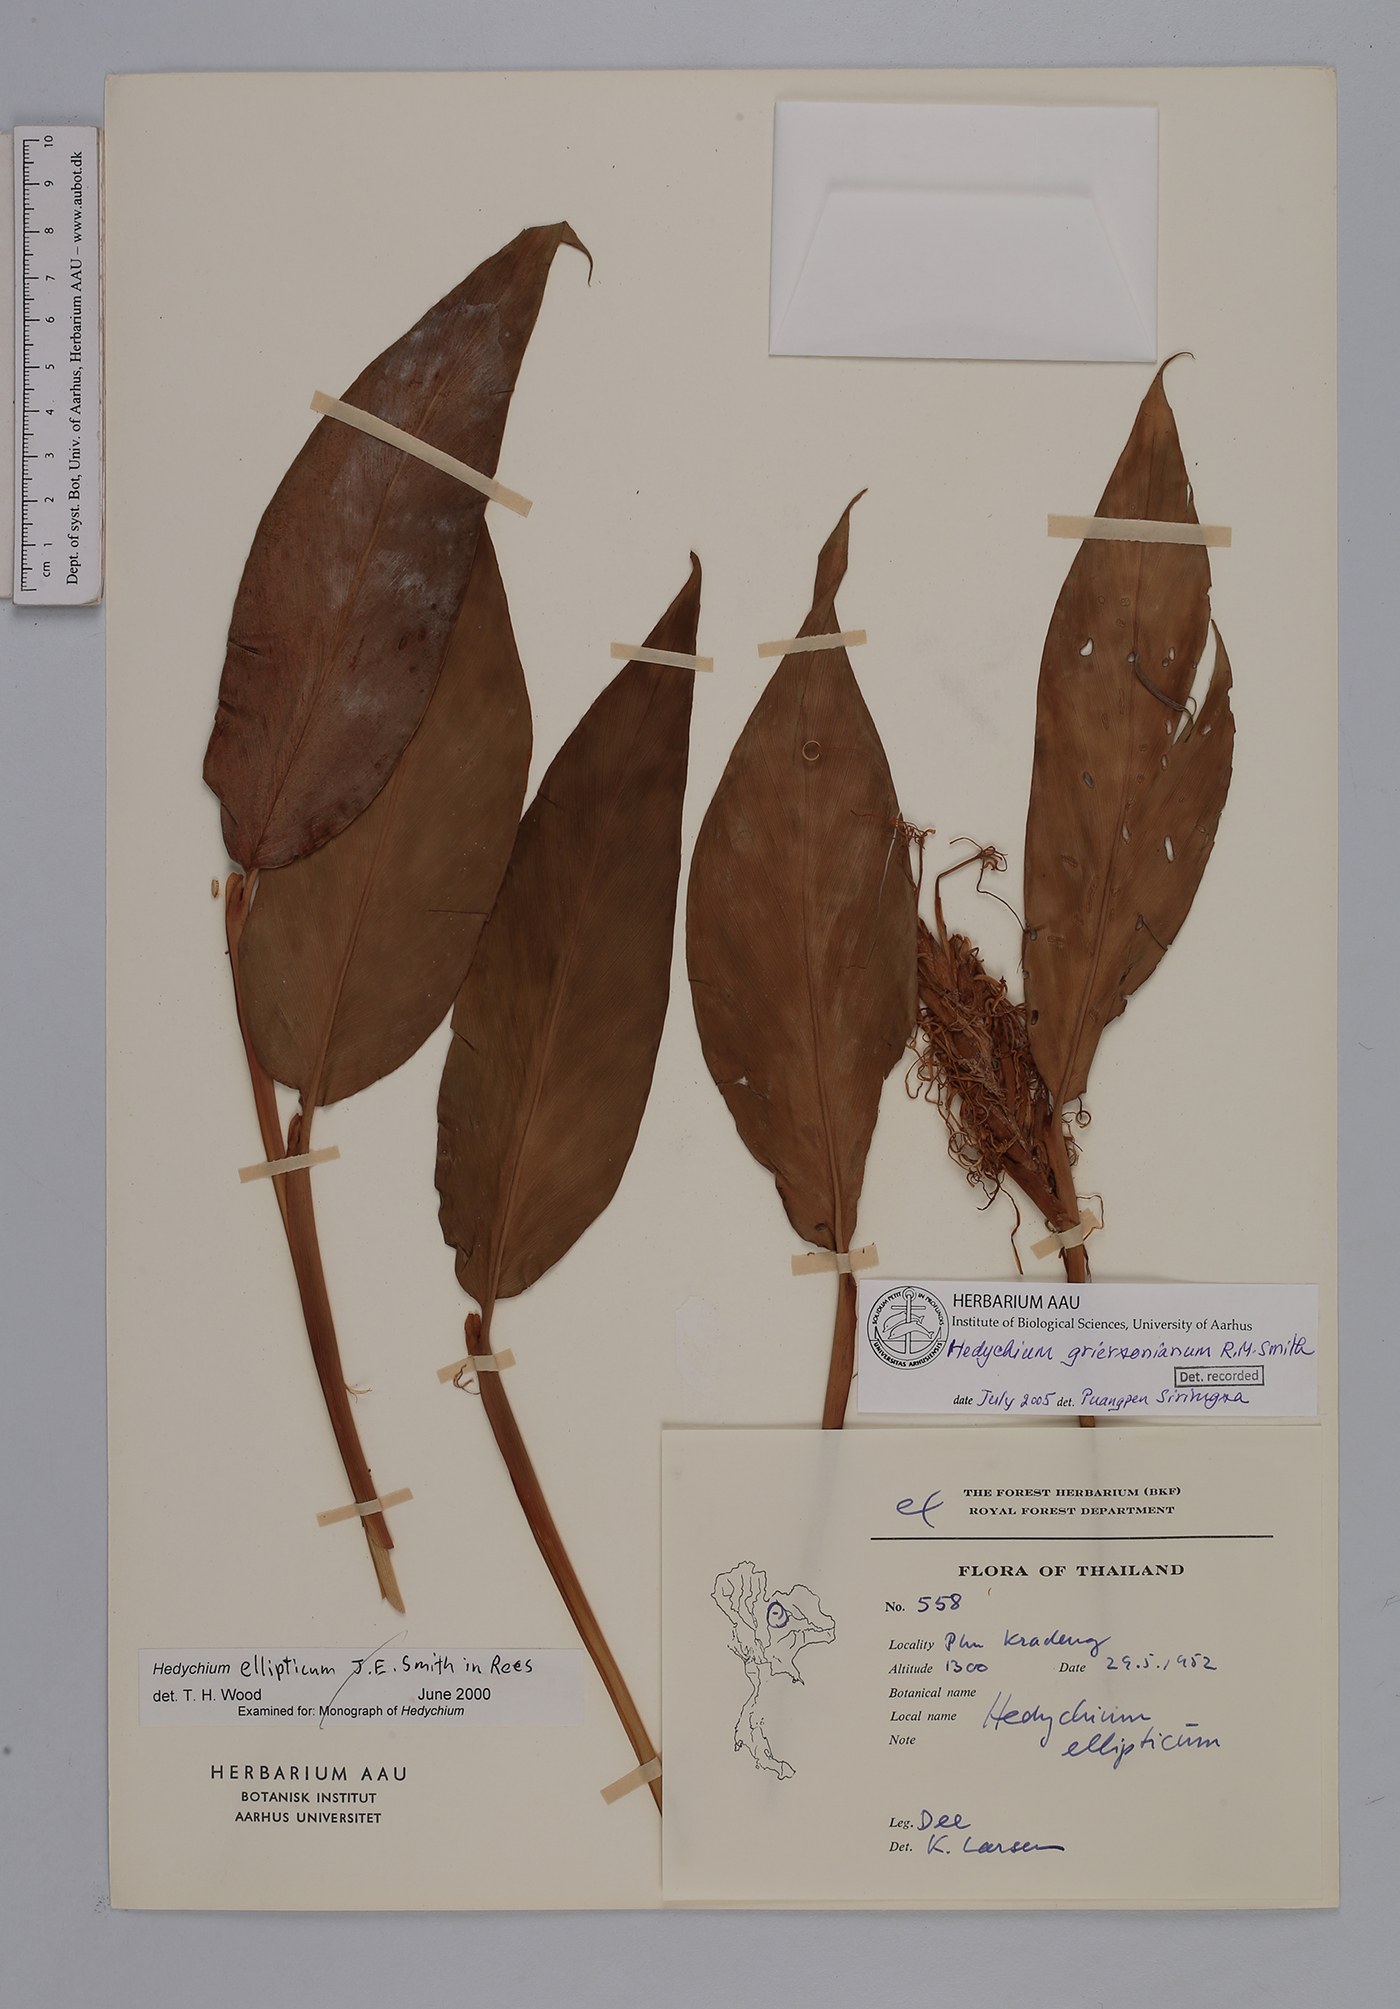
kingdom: Plantae
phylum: Tracheophyta
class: Liliopsida
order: Zingiberales
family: Zingiberaceae
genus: Hedychium
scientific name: Hedychium griersonianum
